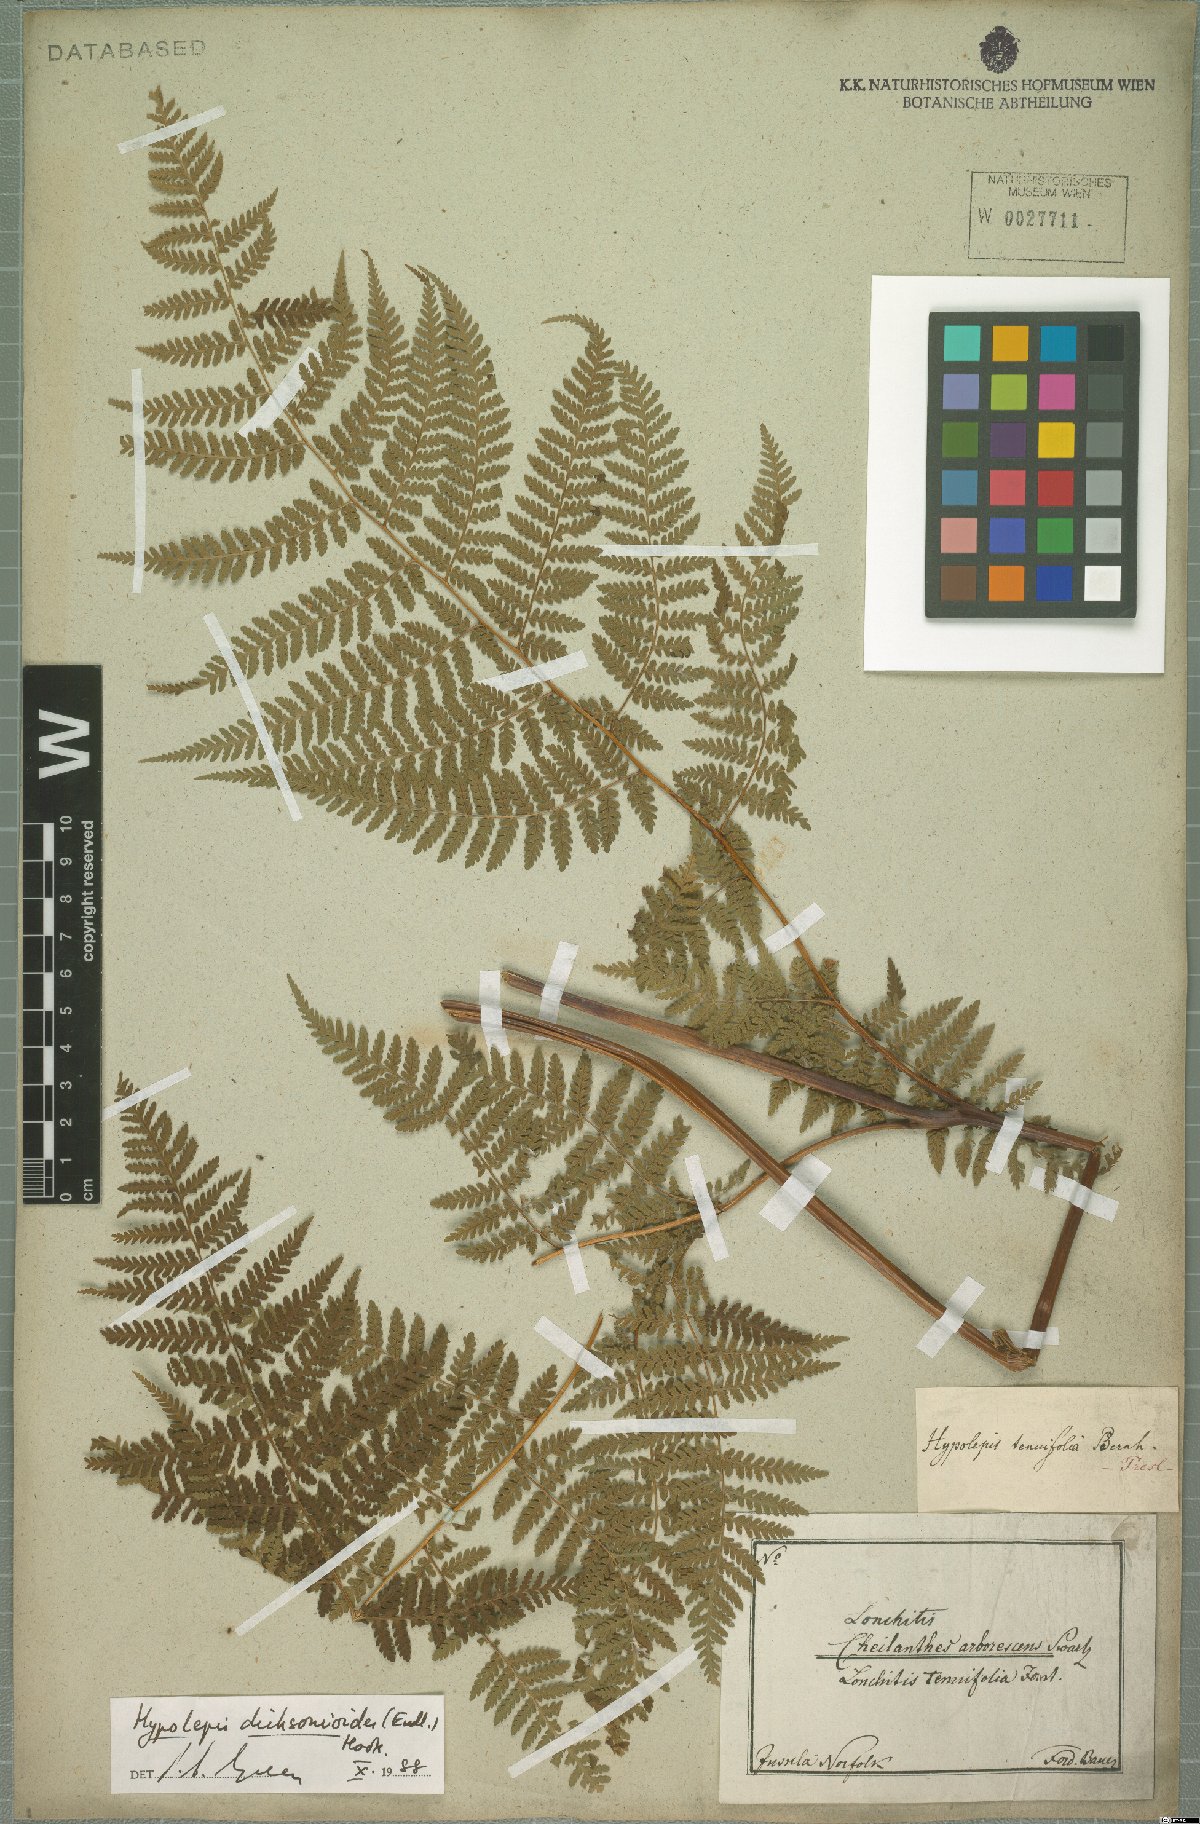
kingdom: Plantae
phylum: Tracheophyta
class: Polypodiopsida
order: Polypodiales
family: Dennstaedtiaceae
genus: Hypolepis
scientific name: Hypolepis dicksonioides
